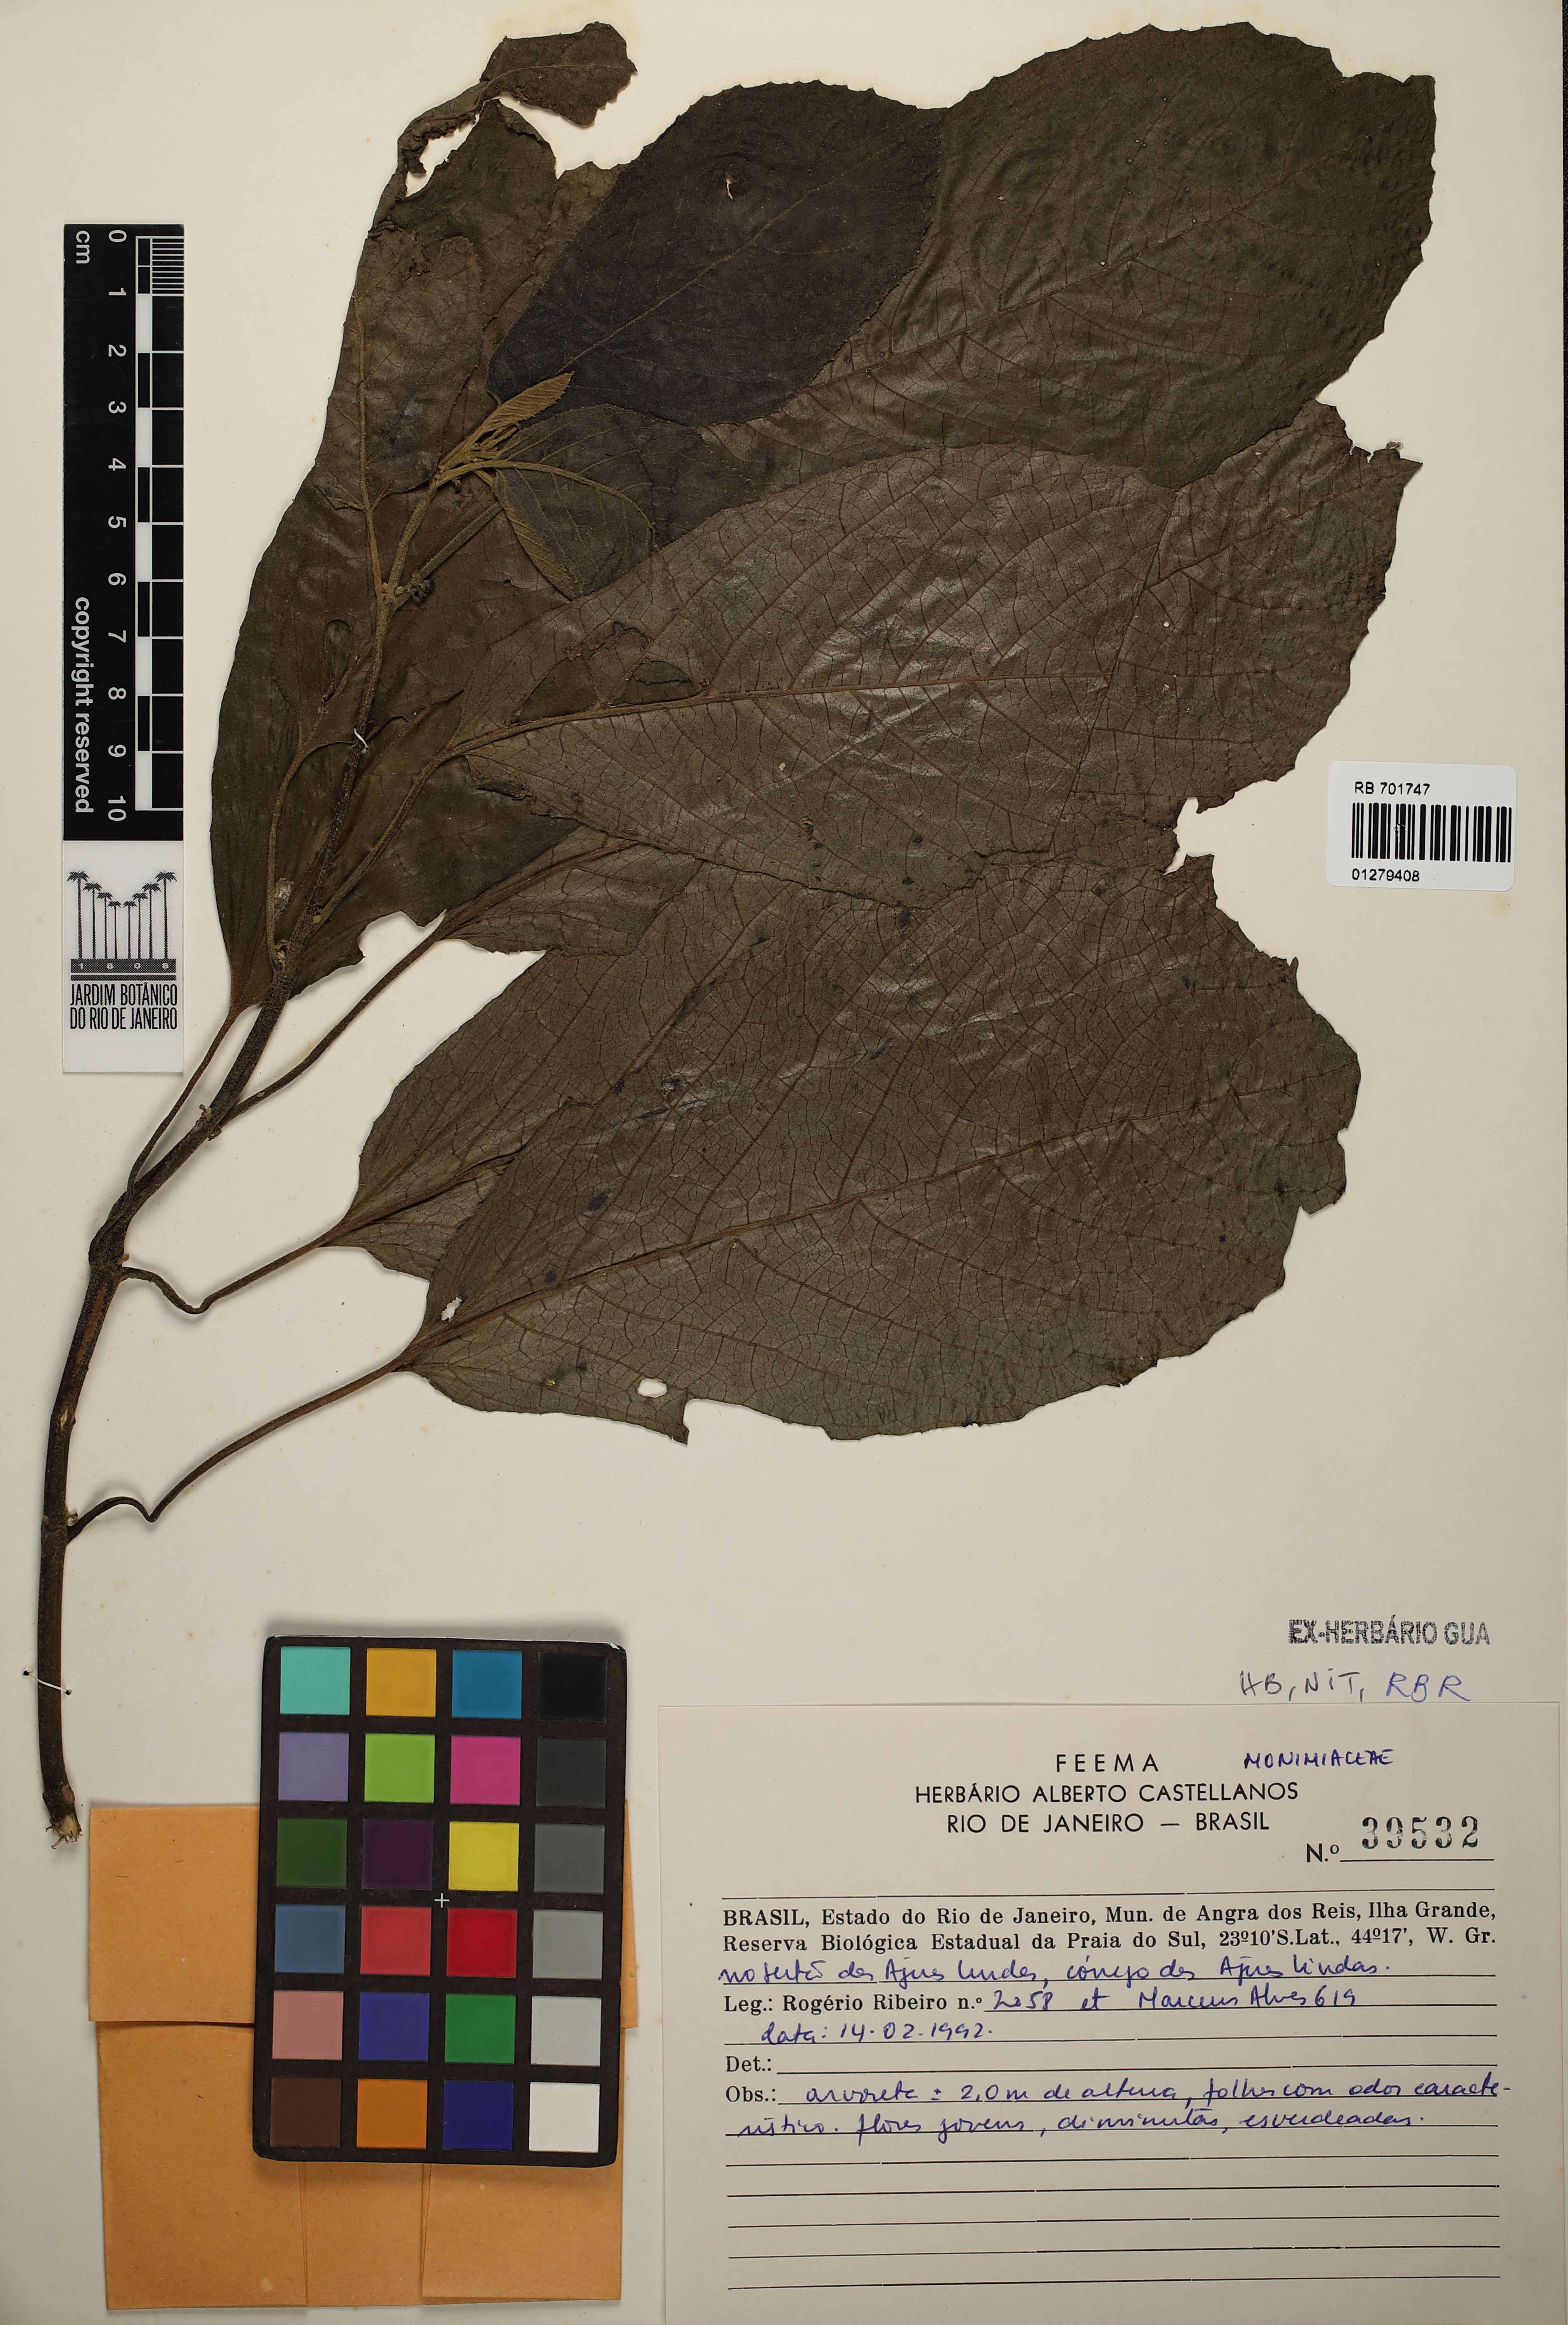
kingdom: Plantae
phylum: Tracheophyta
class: Magnoliopsida
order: Laurales
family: Monimiaceae
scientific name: Monimiaceae
